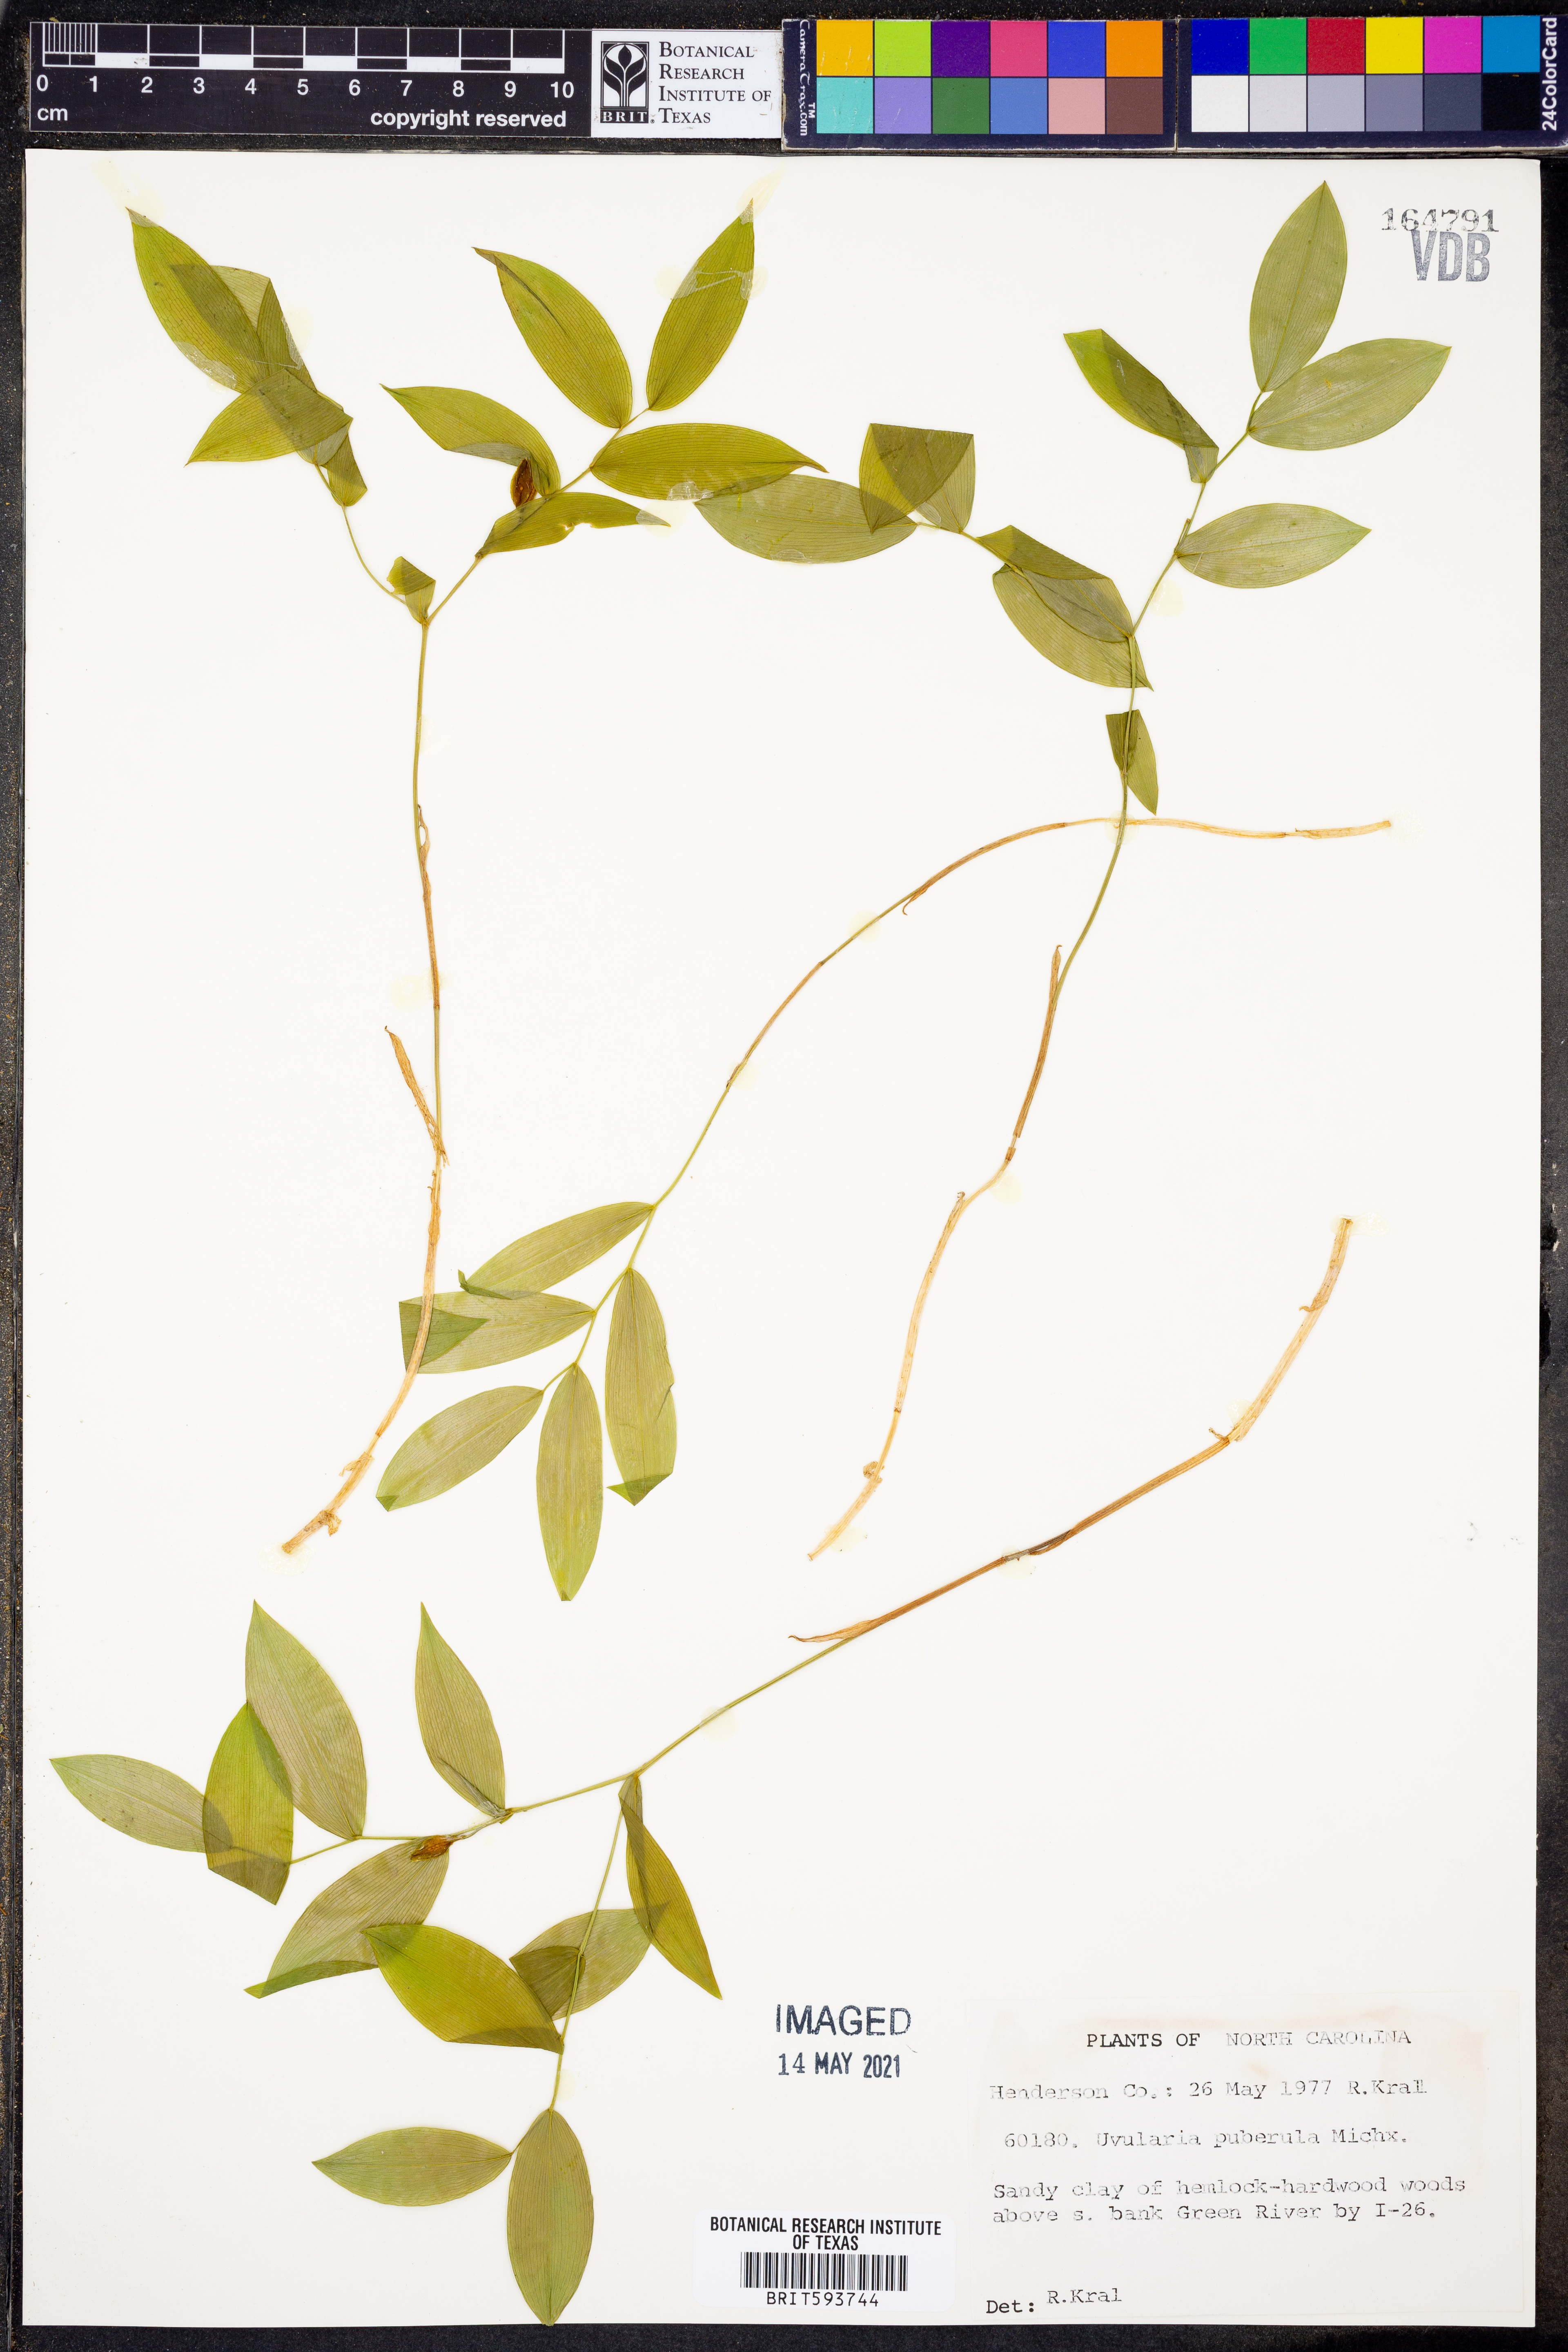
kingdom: Plantae
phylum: Tracheophyta
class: Liliopsida
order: Liliales
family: Colchicaceae
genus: Uvularia
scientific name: Uvularia puberula
